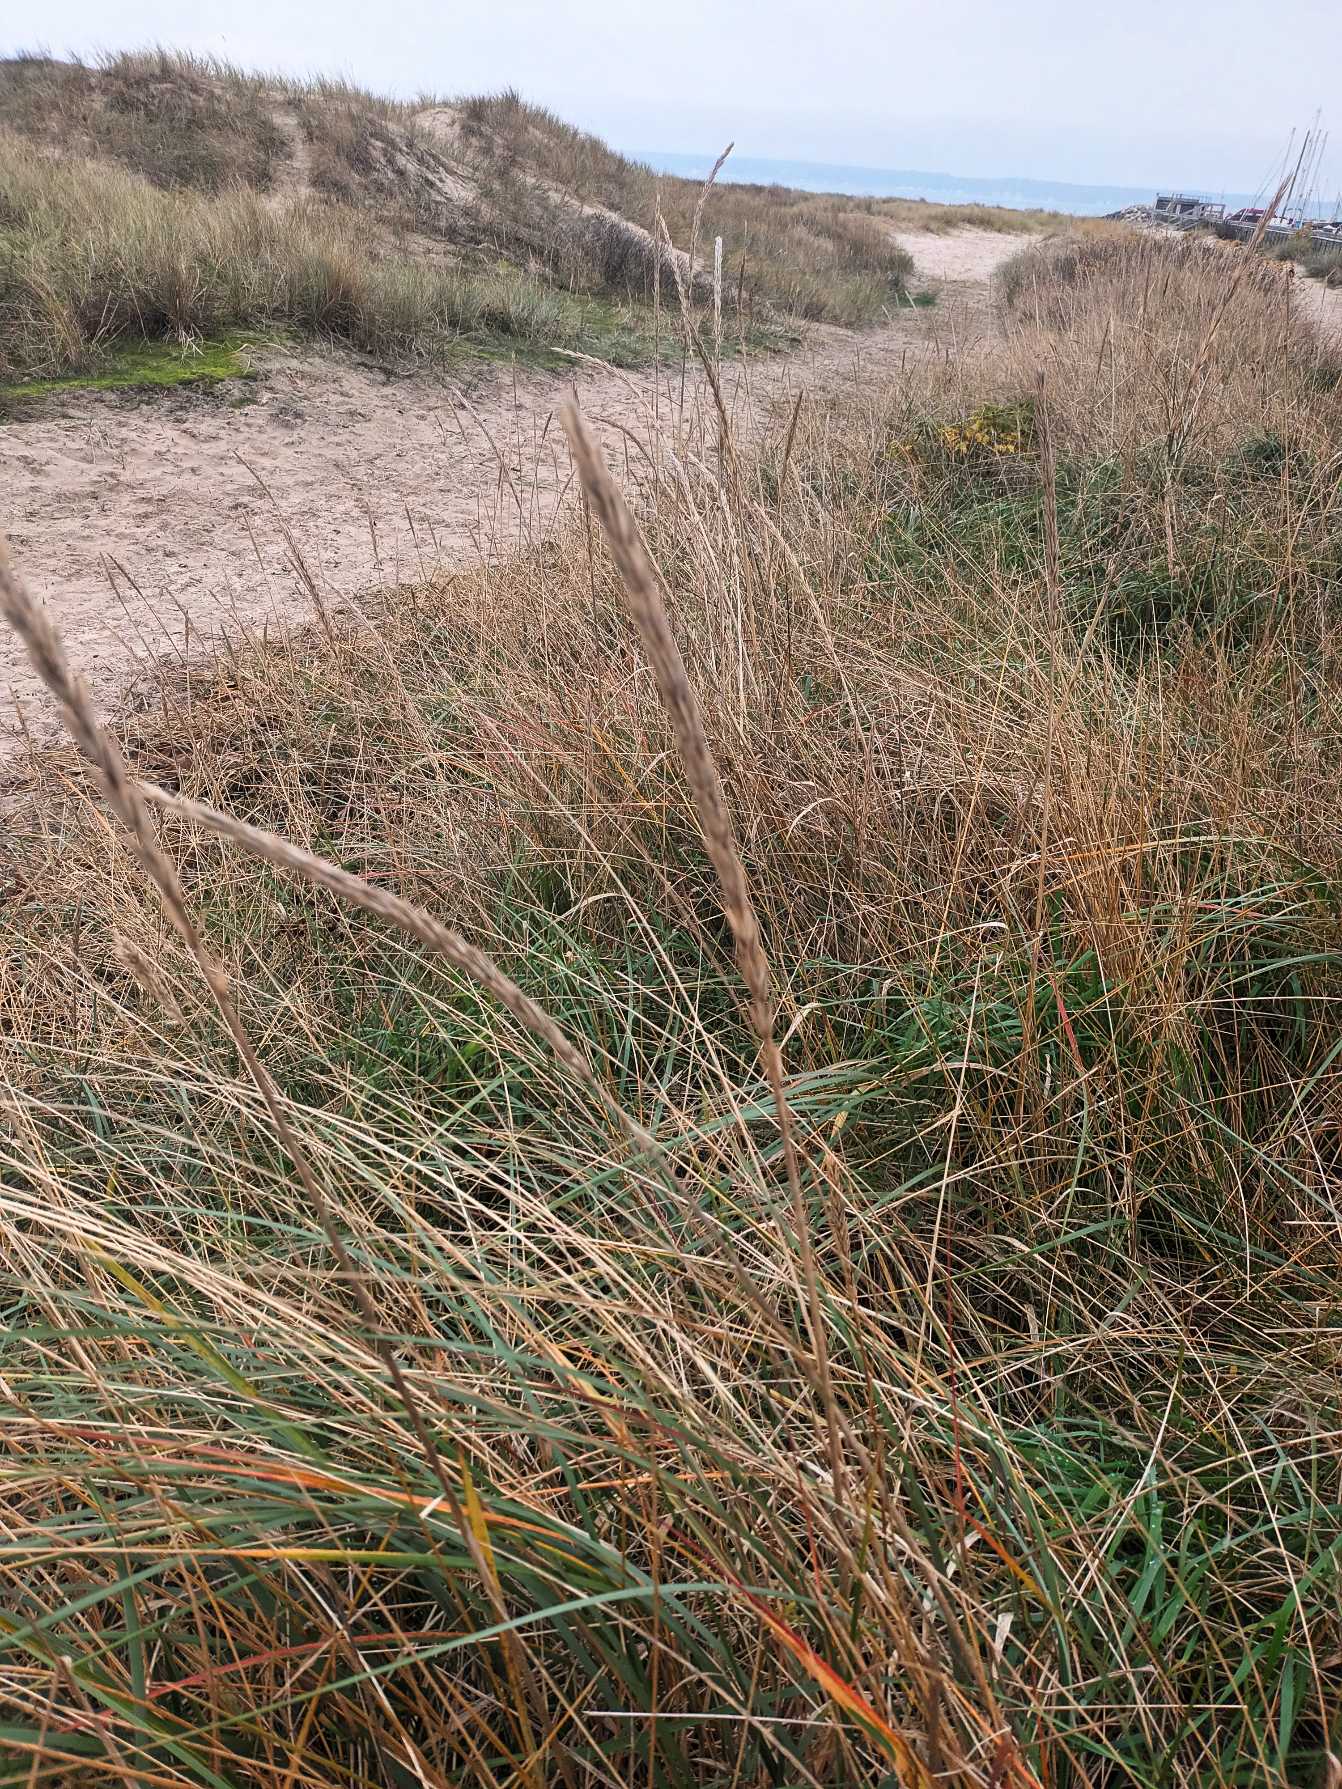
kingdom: Plantae
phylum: Tracheophyta
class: Liliopsida
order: Poales
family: Poaceae
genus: Leymus
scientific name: Leymus arenarius
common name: Marehalm
